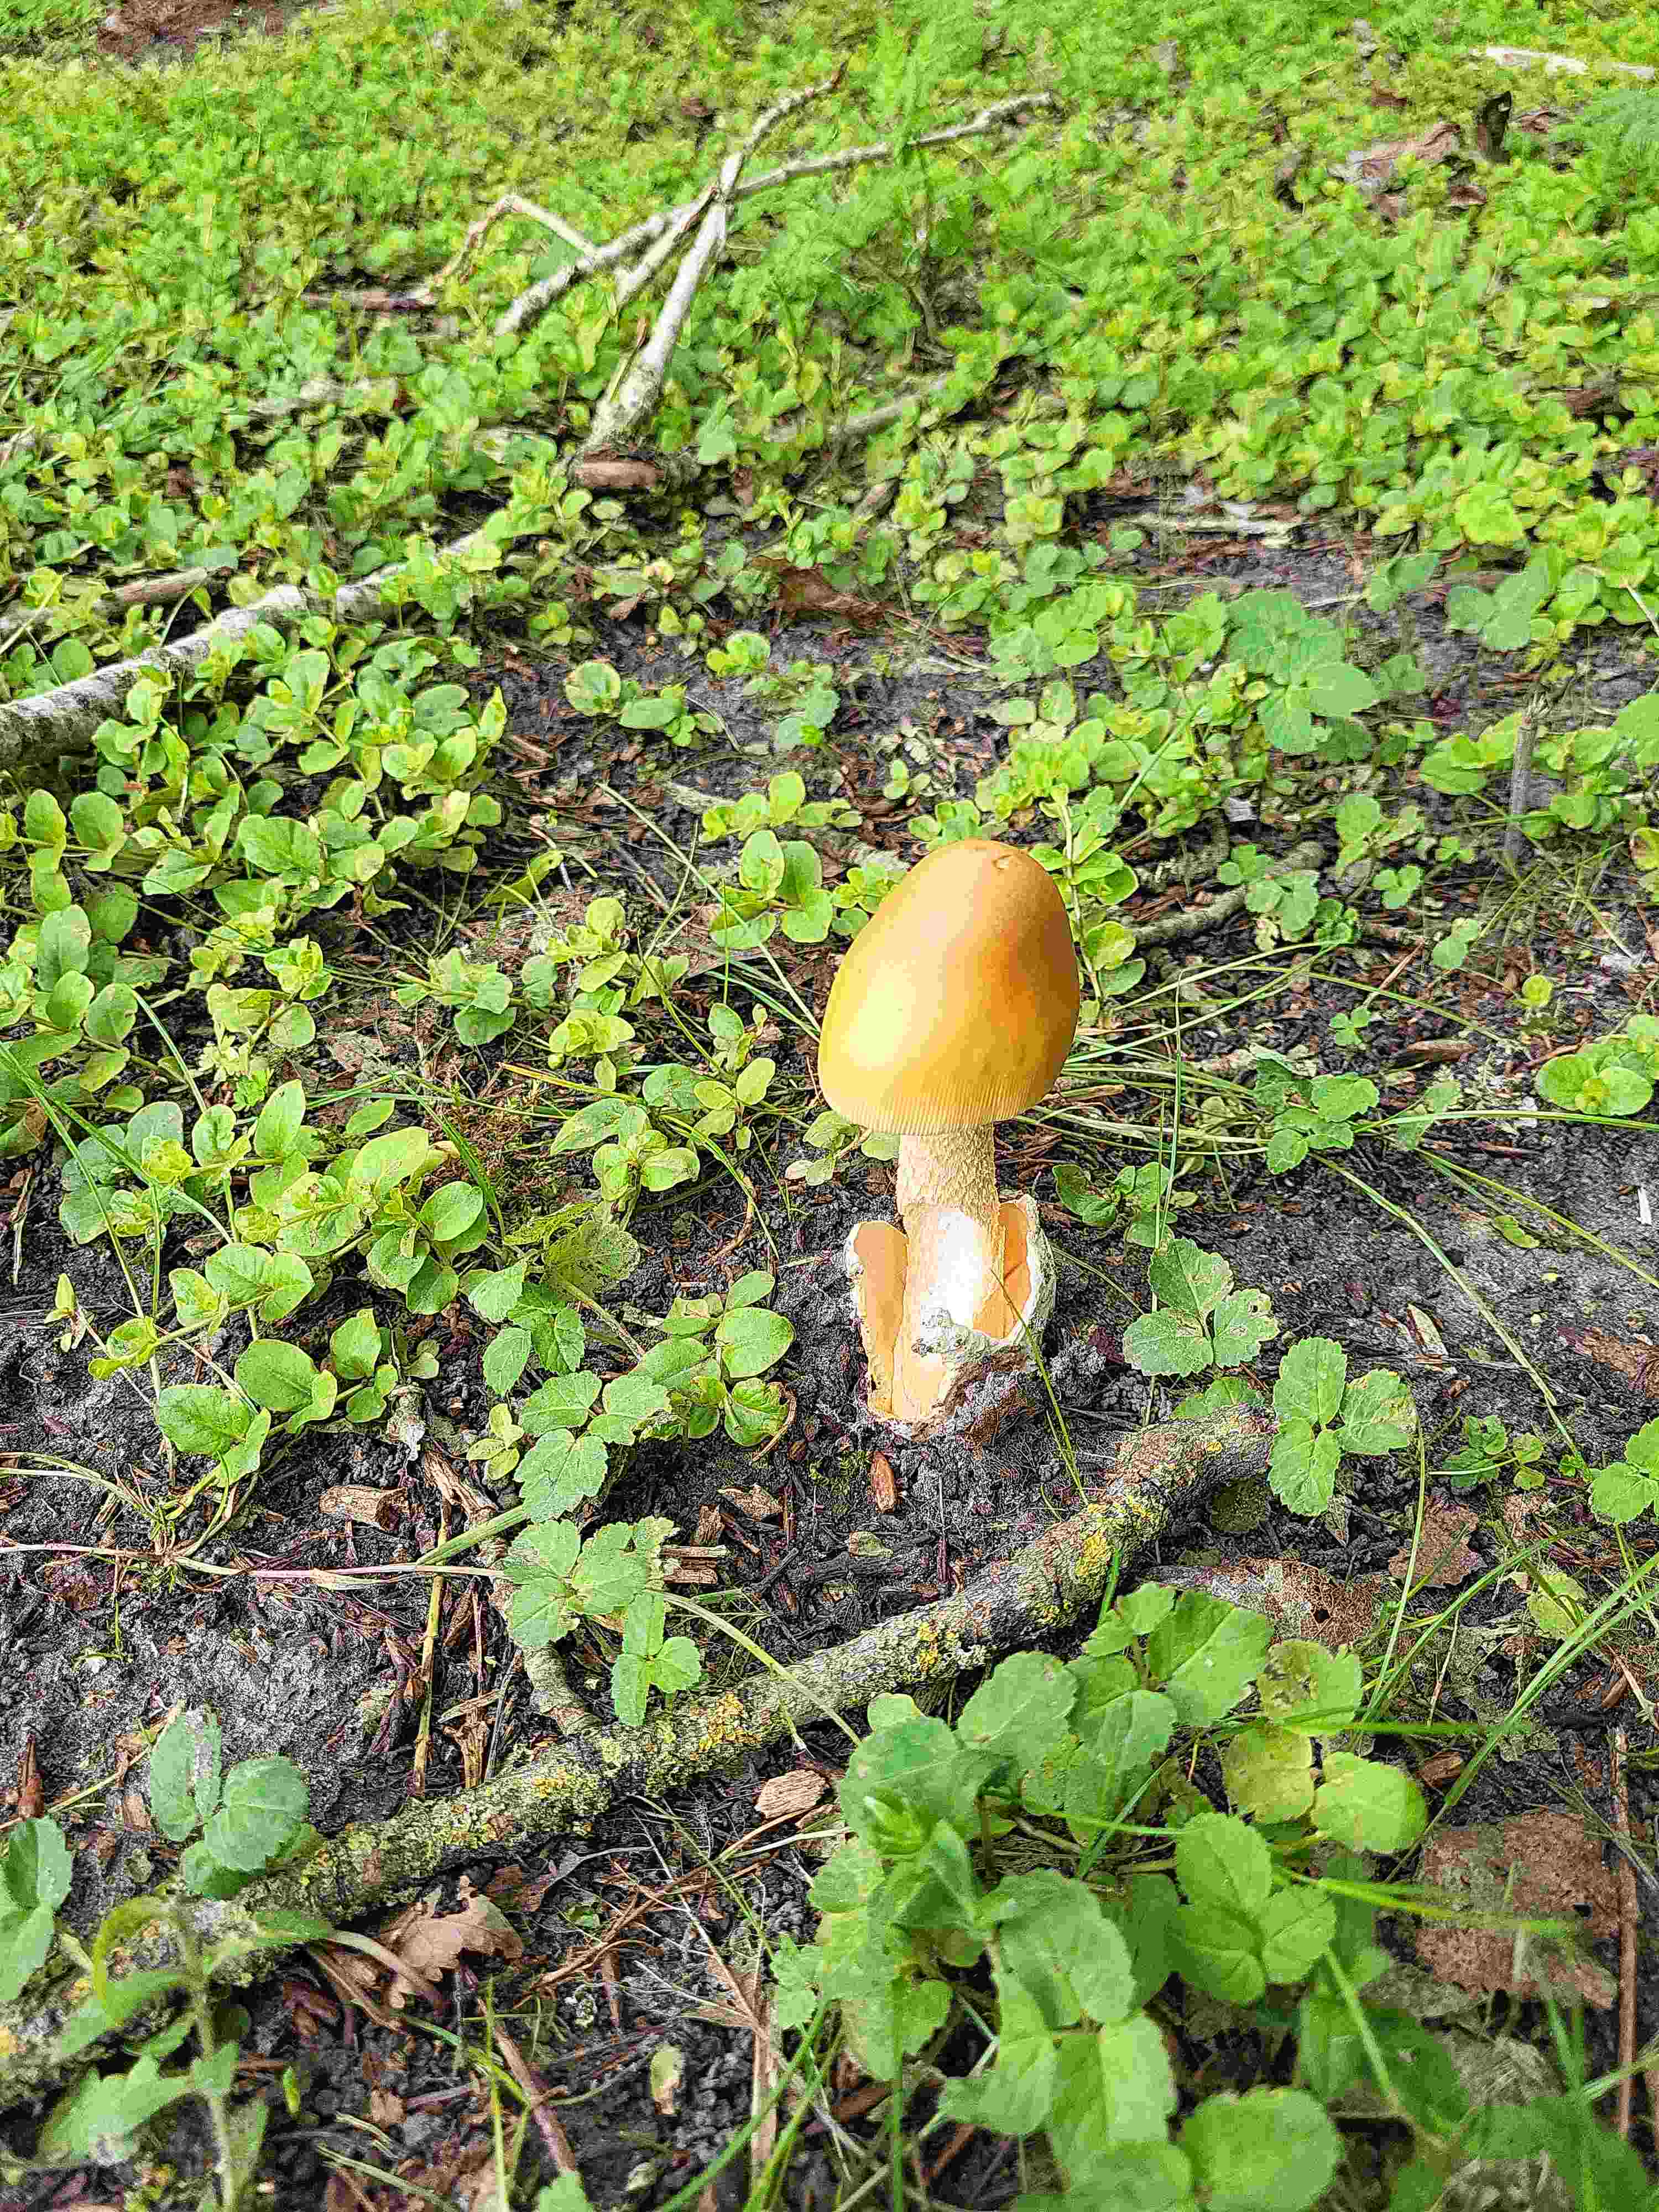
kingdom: Fungi
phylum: Basidiomycota
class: Agaricomycetes
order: Agaricales
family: Amanitaceae
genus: Amanita
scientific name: Amanita fulva
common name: brun kam-fluesvamp
